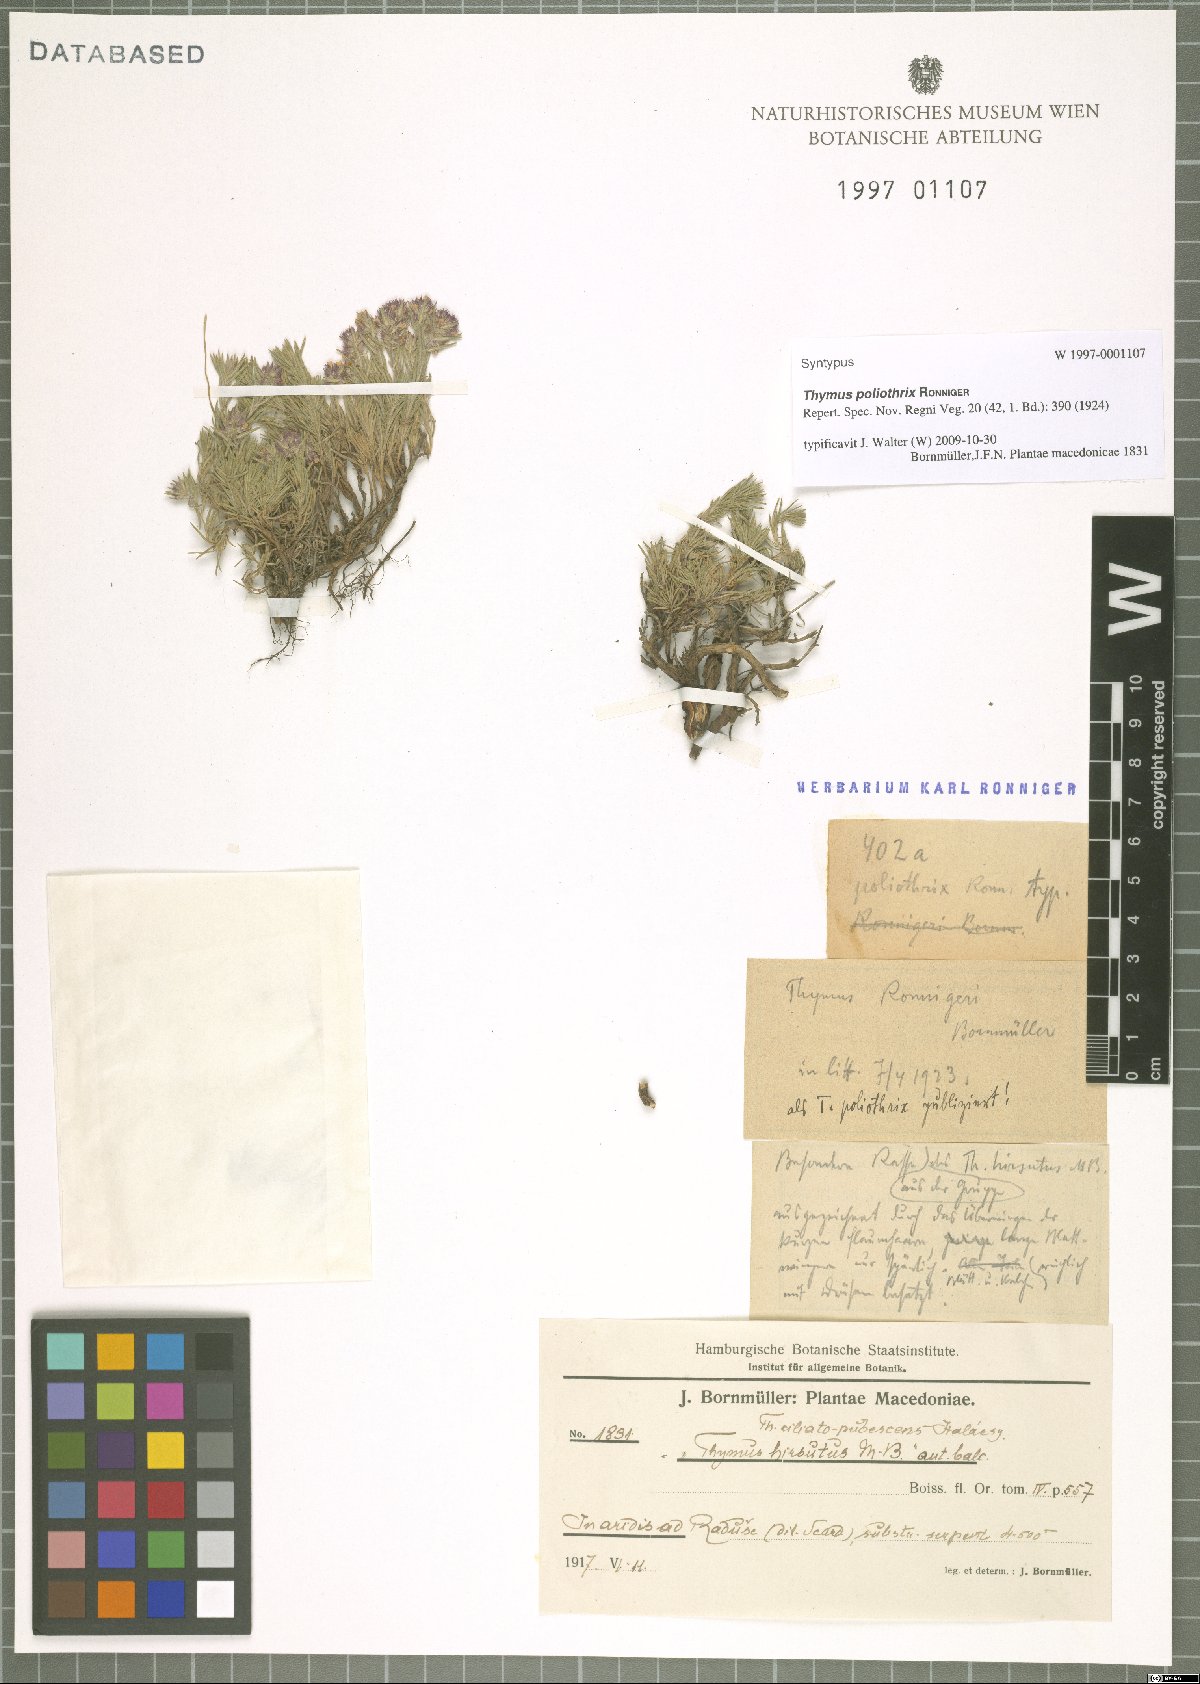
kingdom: Plantae
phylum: Tracheophyta
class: Magnoliopsida
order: Lamiales
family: Lamiaceae
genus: Thymus
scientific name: Thymus boissieri
